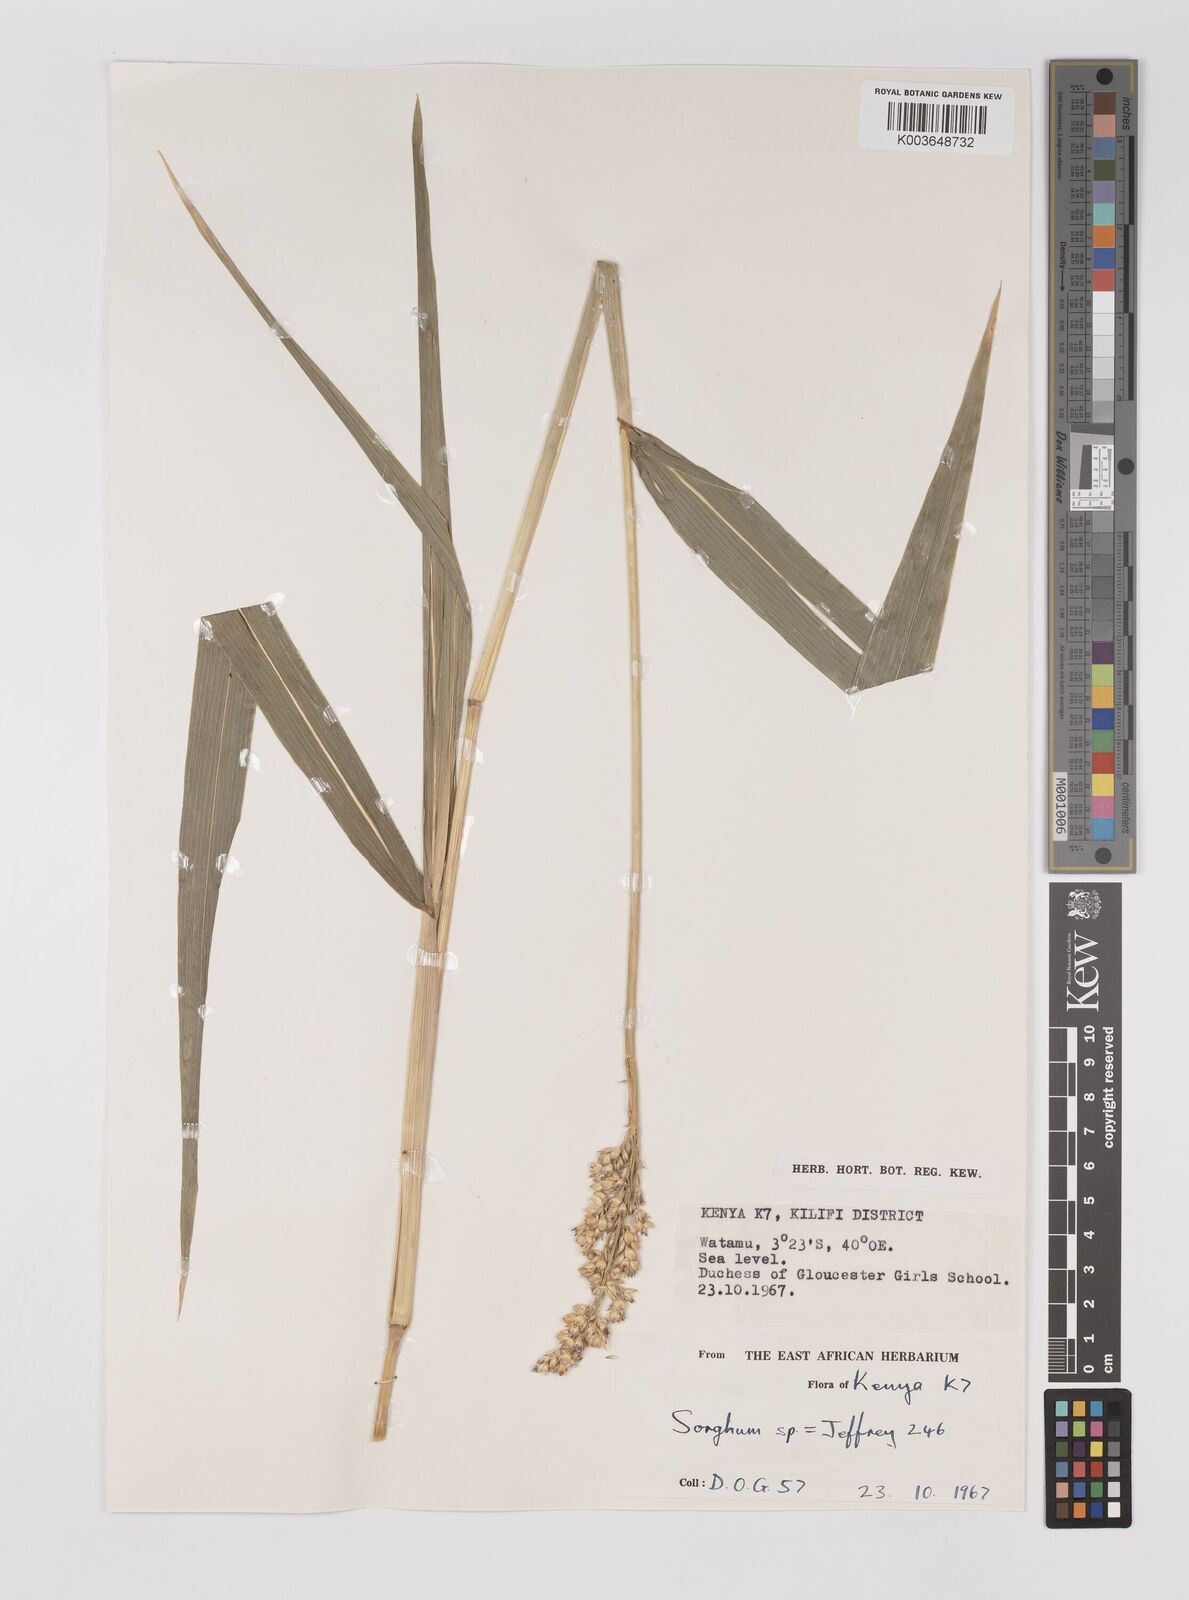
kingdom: Plantae
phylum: Tracheophyta
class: Liliopsida
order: Poales
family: Poaceae
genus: Sorghum
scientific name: Sorghum drummondii
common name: Sudangrass
